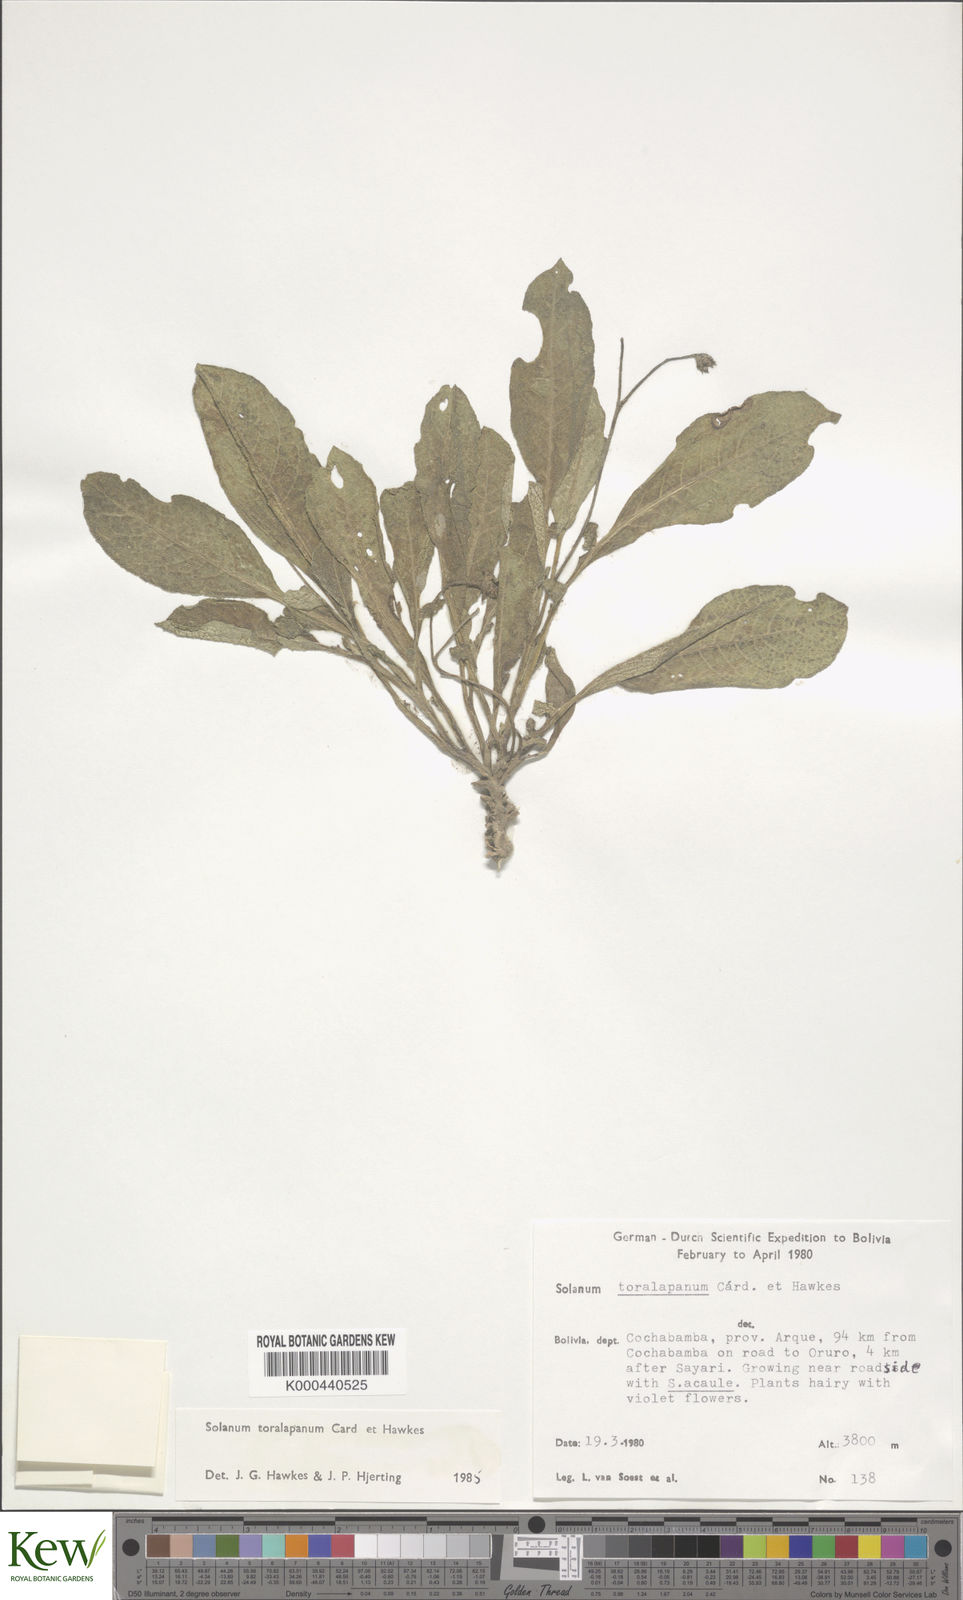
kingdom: Plantae
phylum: Tracheophyta
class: Magnoliopsida
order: Solanales
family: Solanaceae
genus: Solanum
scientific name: Solanum boliviense
